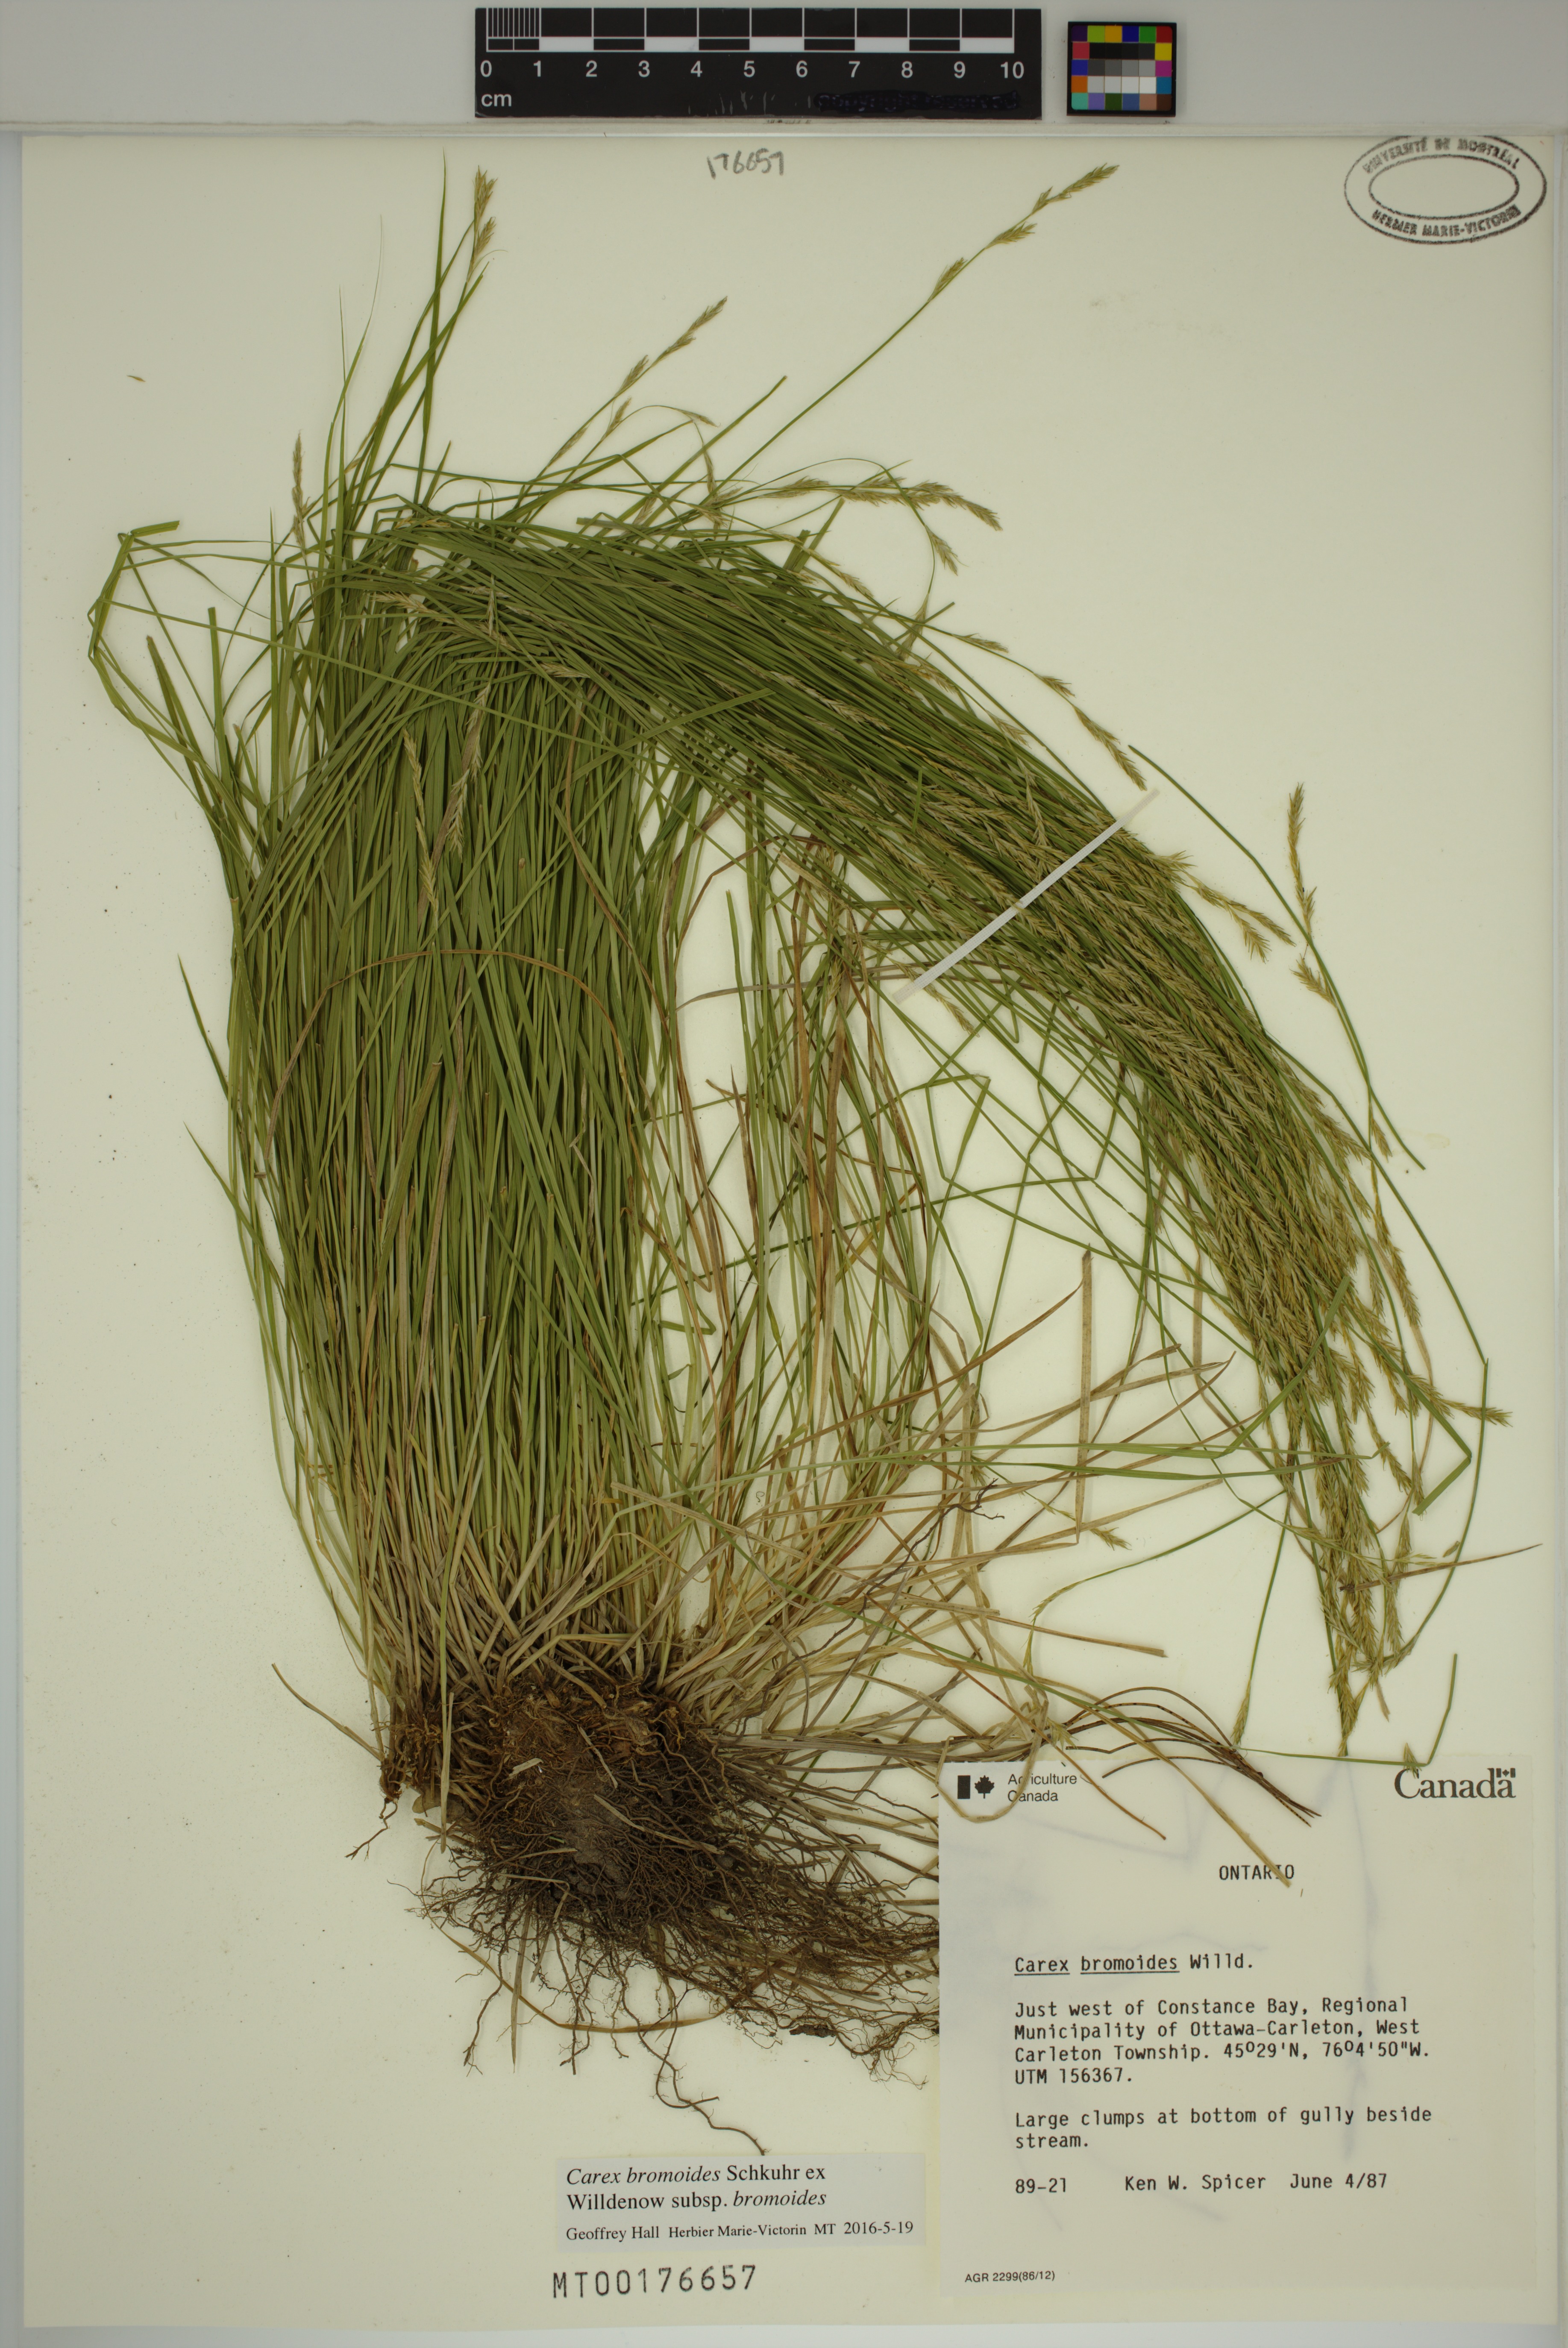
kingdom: Plantae
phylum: Tracheophyta
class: Liliopsida
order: Poales
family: Cyperaceae
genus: Carex
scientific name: Carex bromoides
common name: Brome hummock sedge
